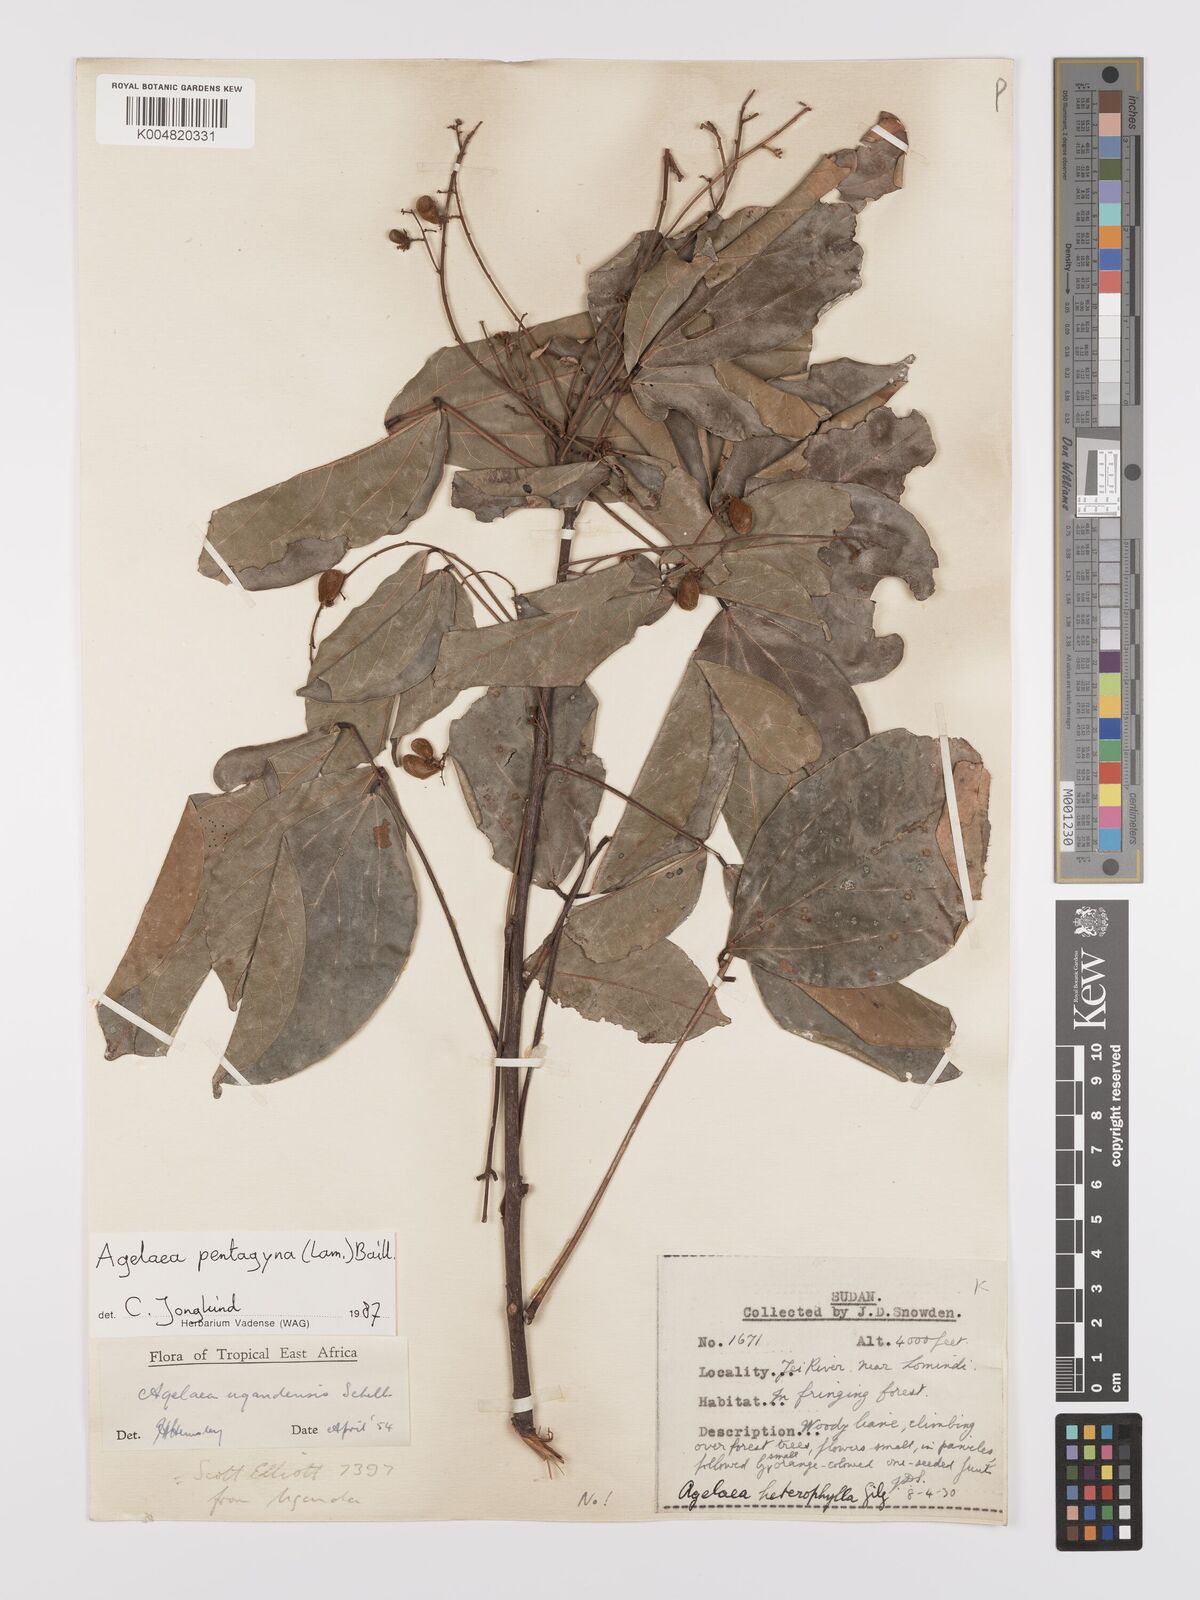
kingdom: Plantae
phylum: Tracheophyta
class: Magnoliopsida
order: Oxalidales
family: Connaraceae
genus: Agelaea
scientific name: Agelaea pentagyna
